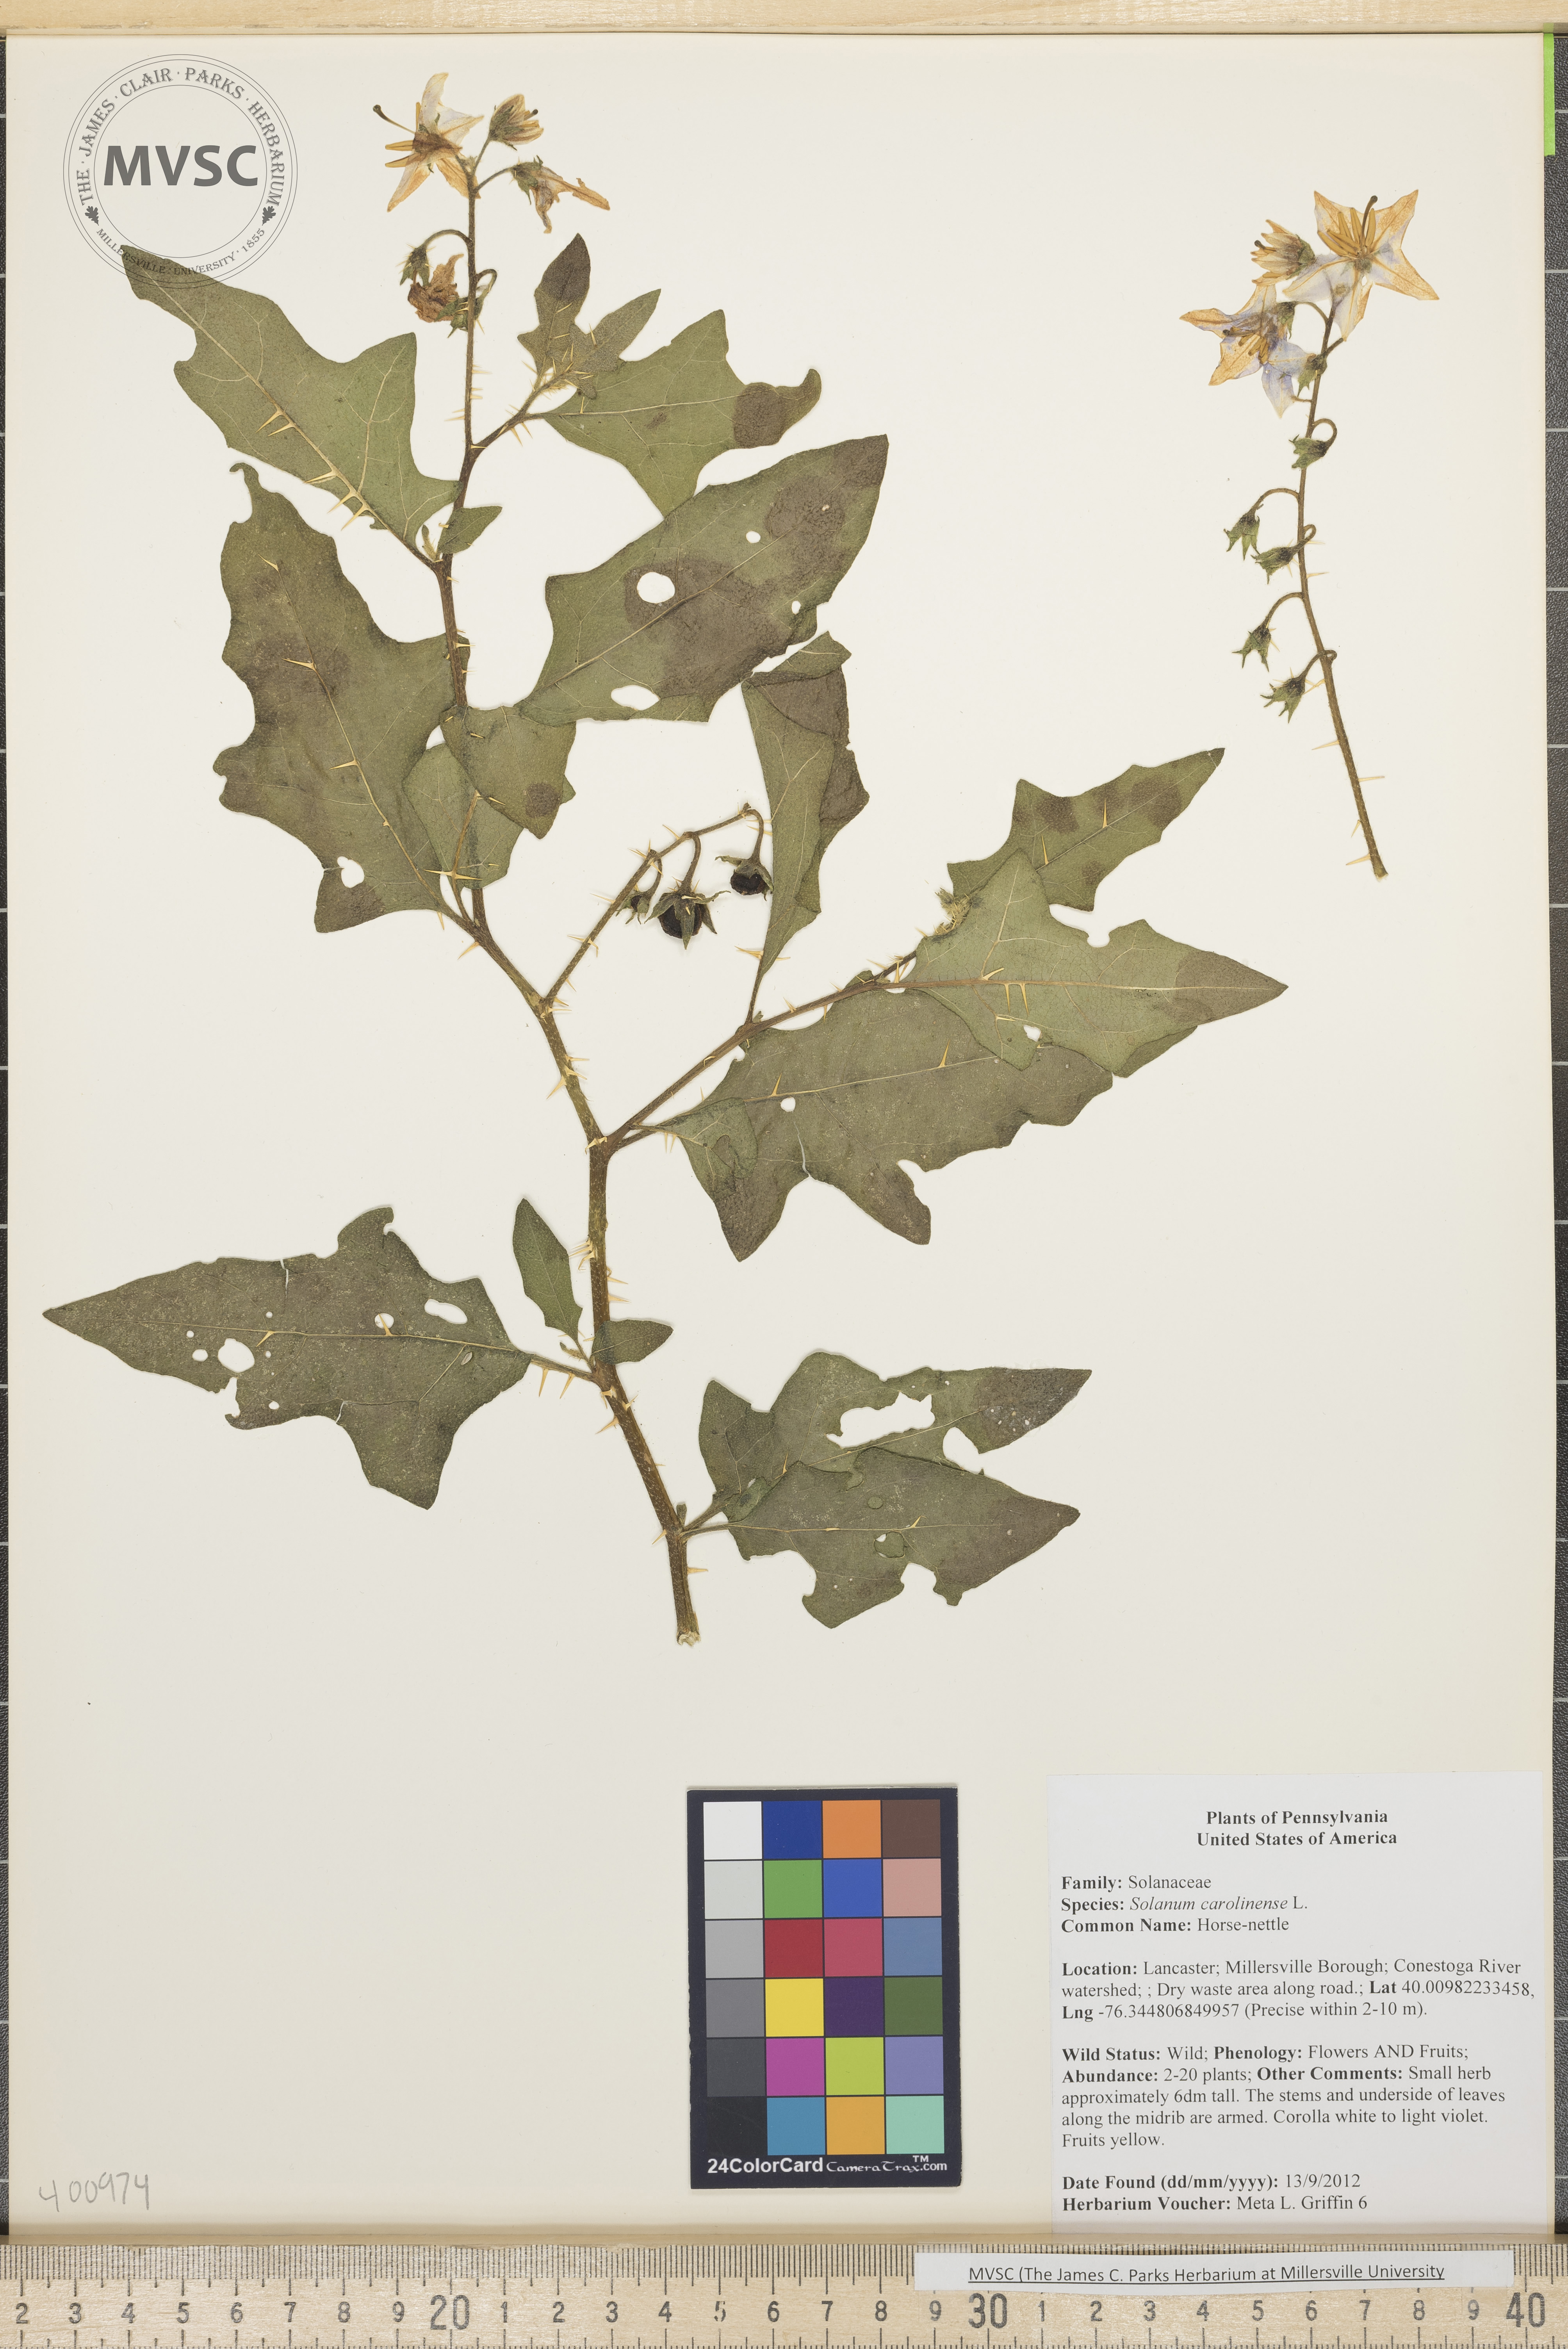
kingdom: Plantae
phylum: Tracheophyta
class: Magnoliopsida
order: Solanales
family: Solanaceae
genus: Solanum
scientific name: Solanum carolinense
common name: Horse-nettle
